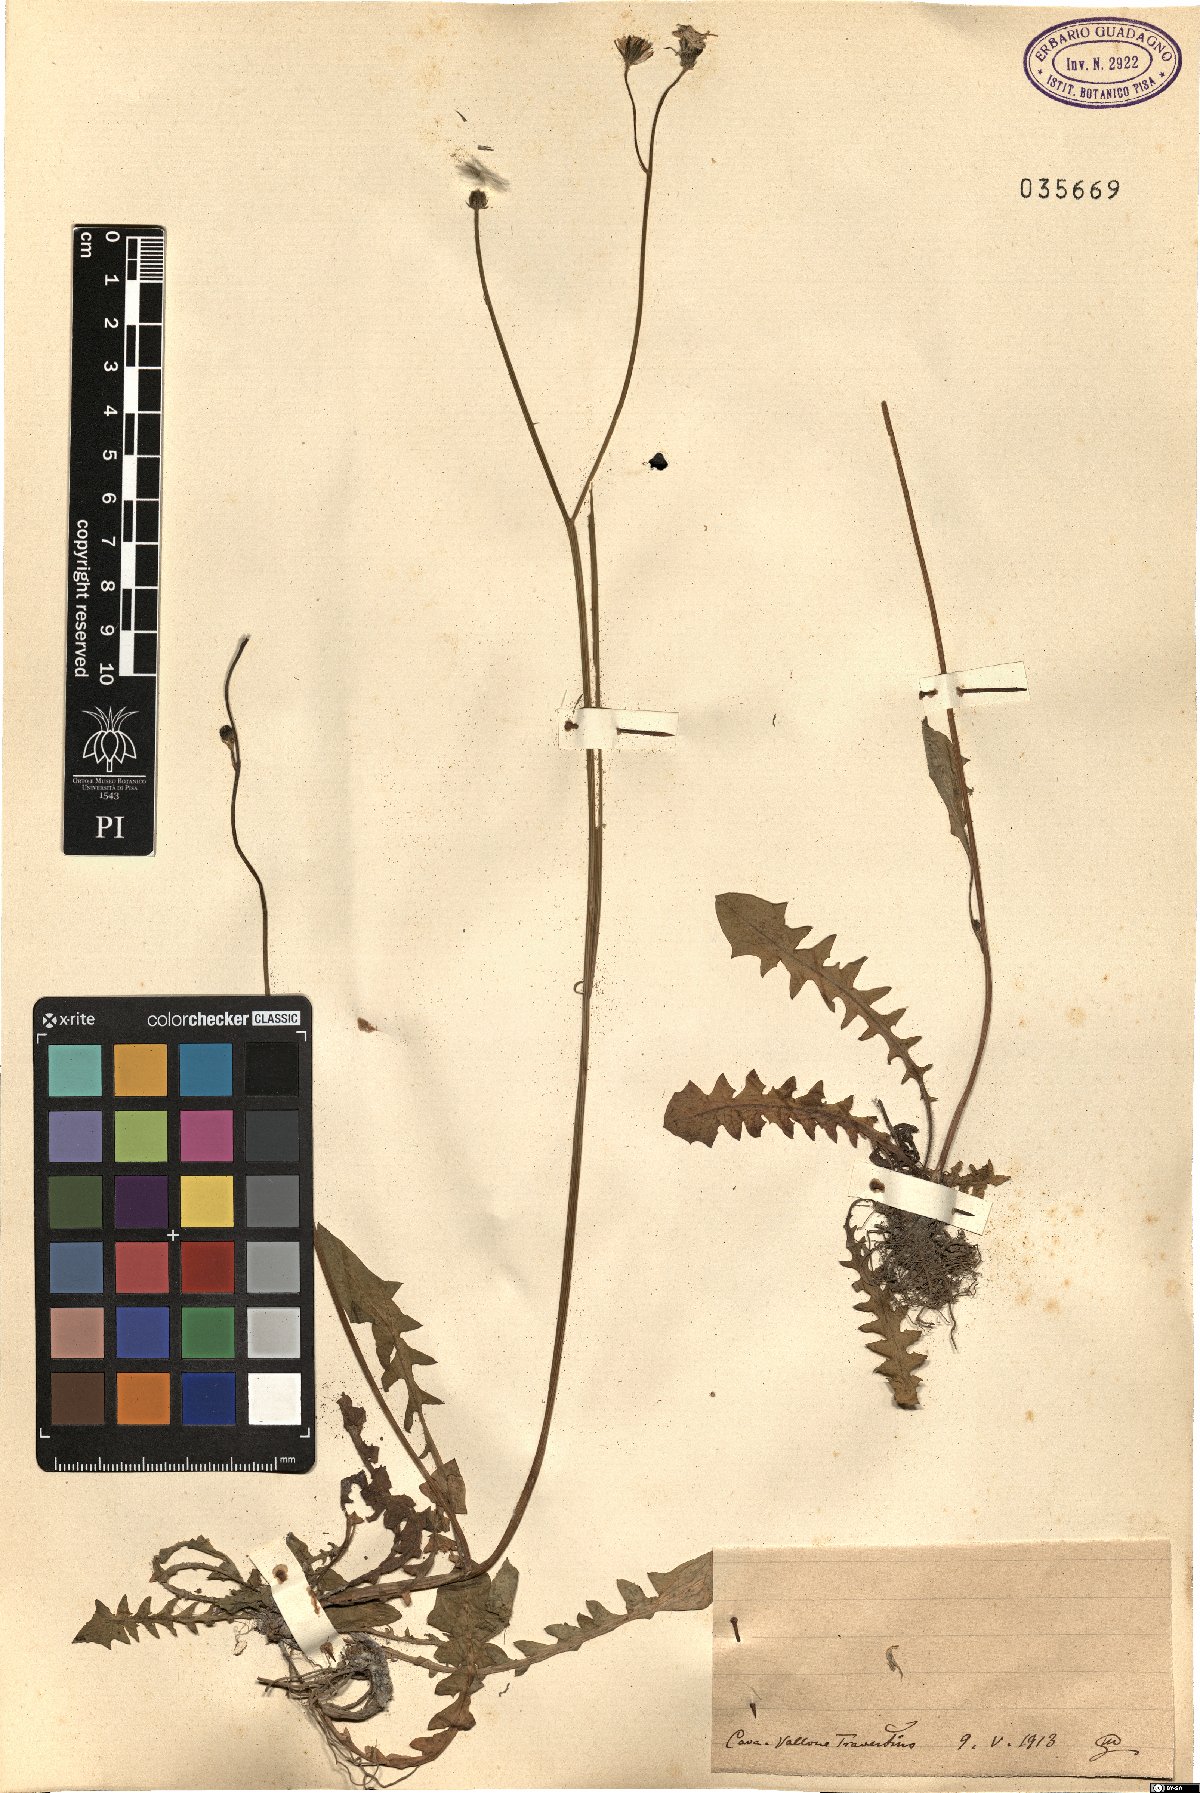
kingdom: Plantae
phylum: Tracheophyta
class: Magnoliopsida
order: Asterales
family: Asteraceae
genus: Crepis
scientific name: Crepis
